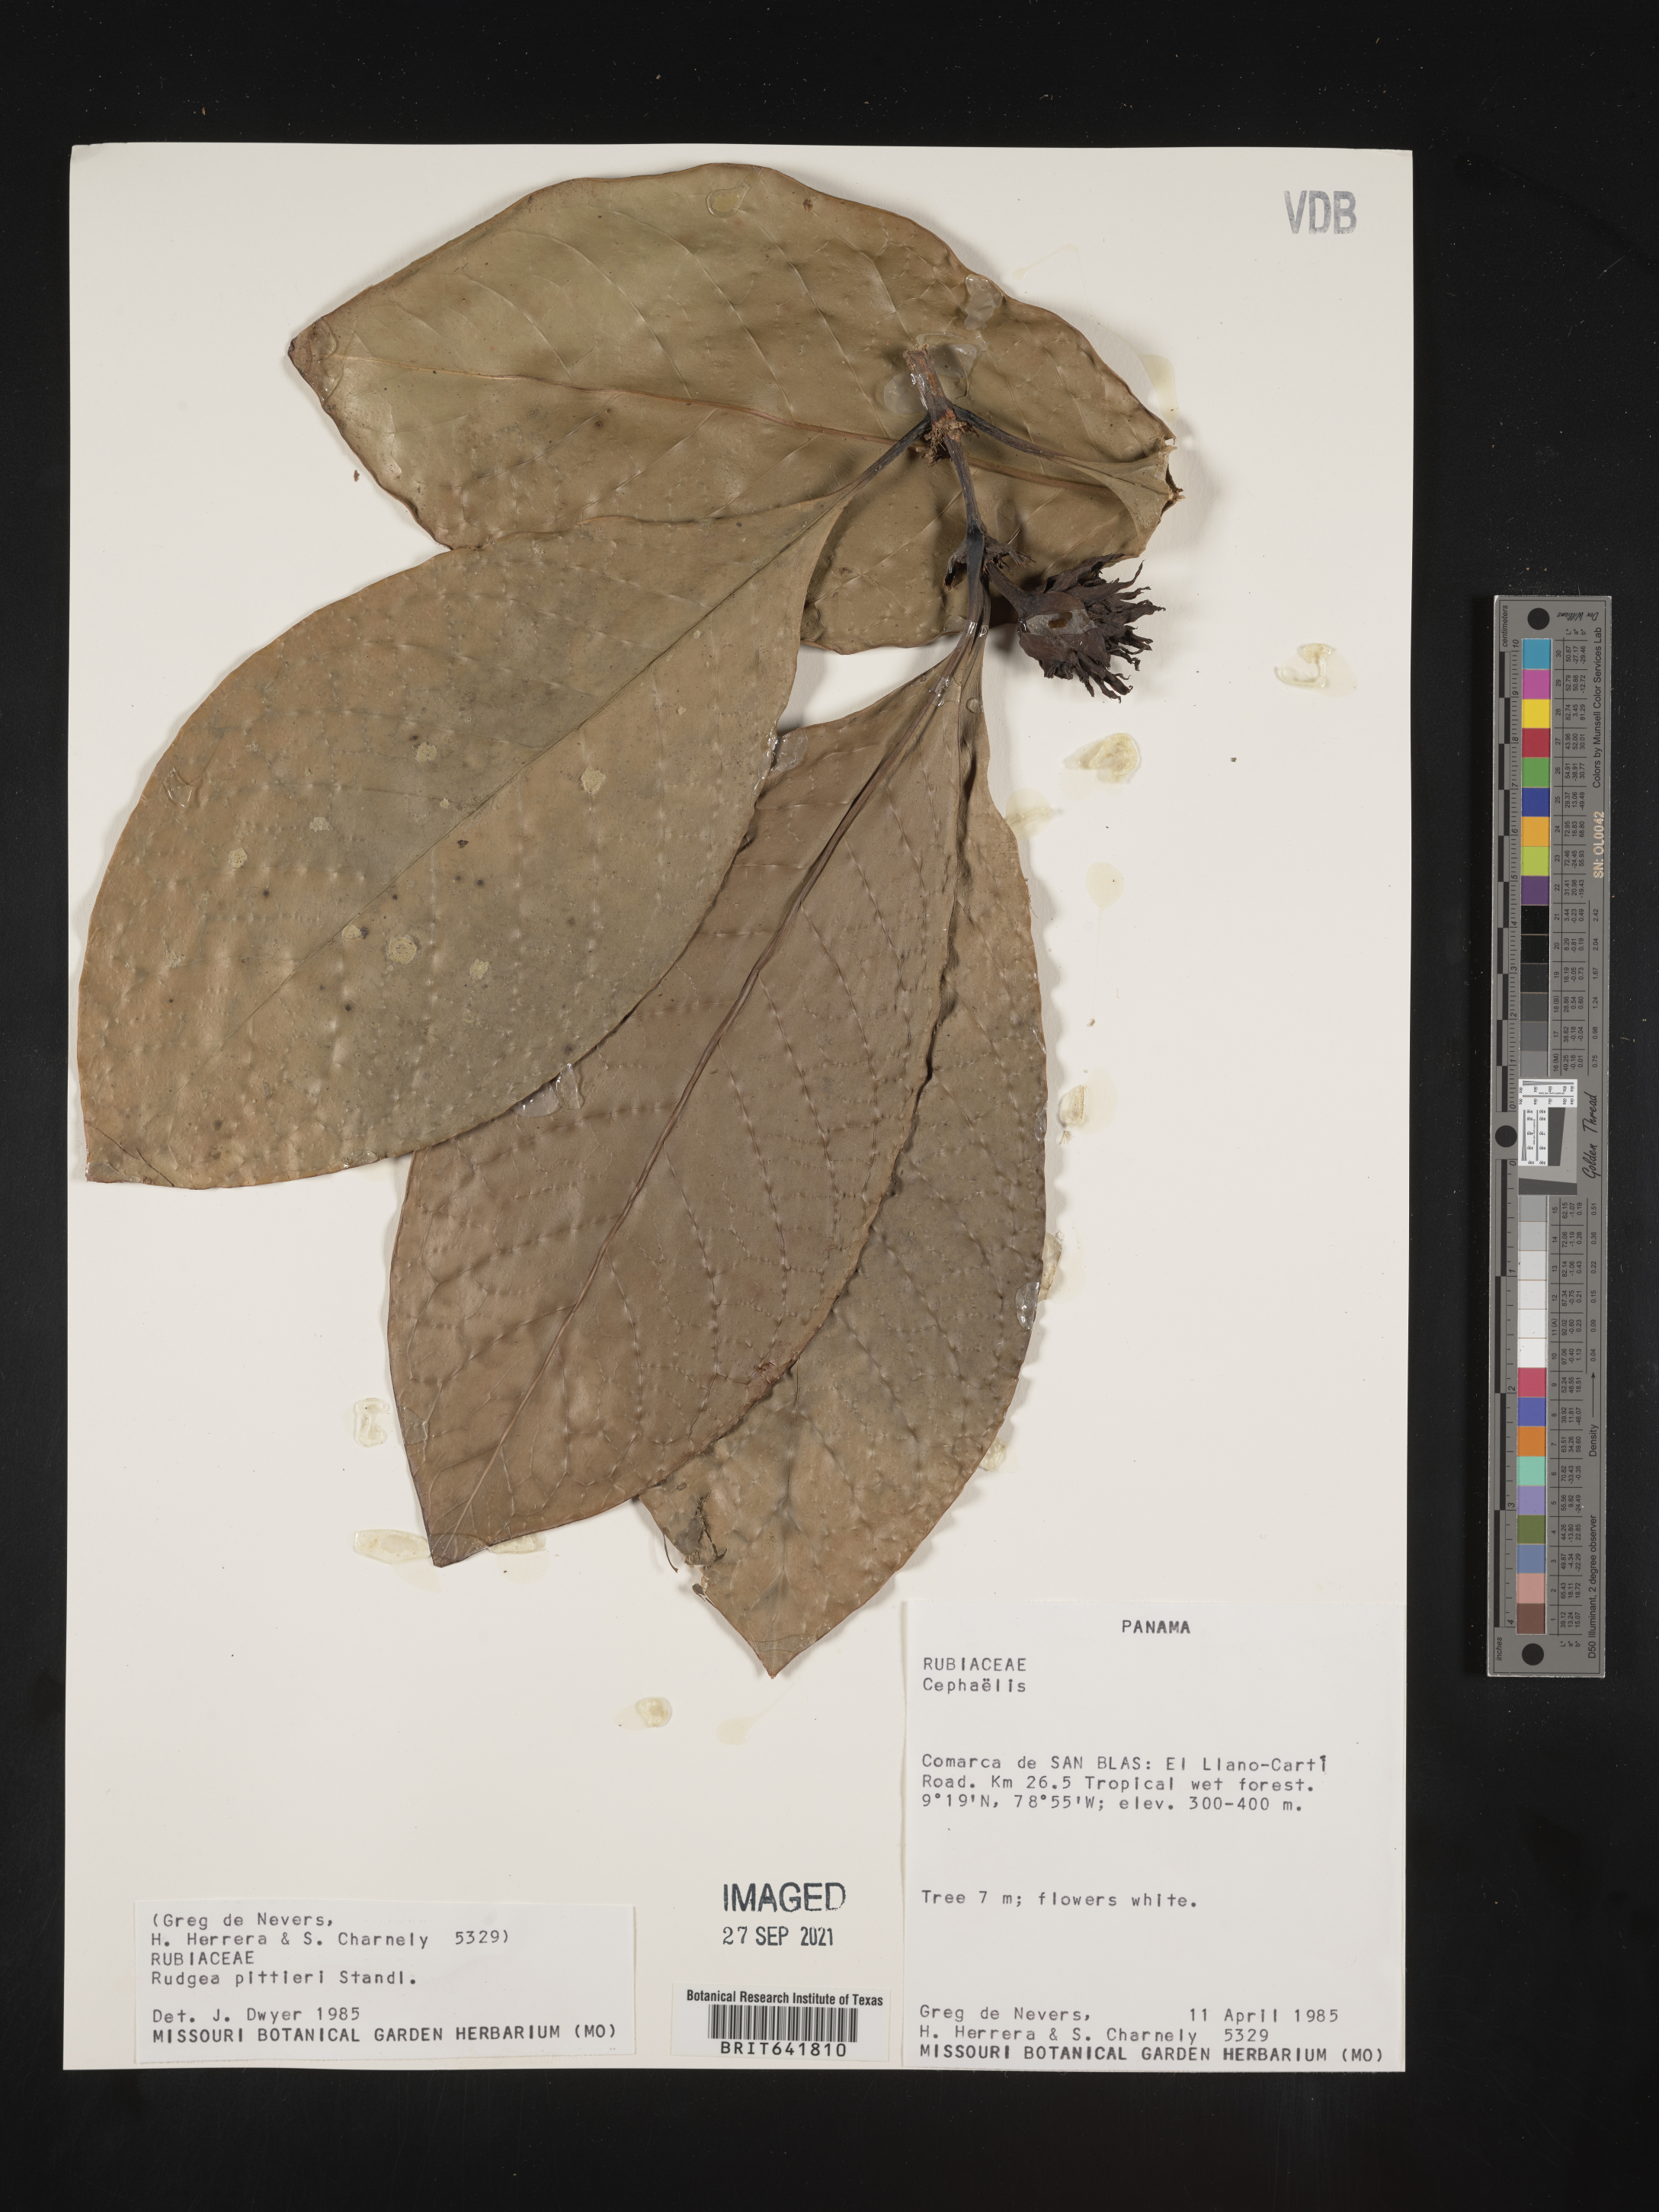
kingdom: Plantae
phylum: Tracheophyta
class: Magnoliopsida
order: Gentianales
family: Rubiaceae
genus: Rudgea
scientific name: Rudgea
